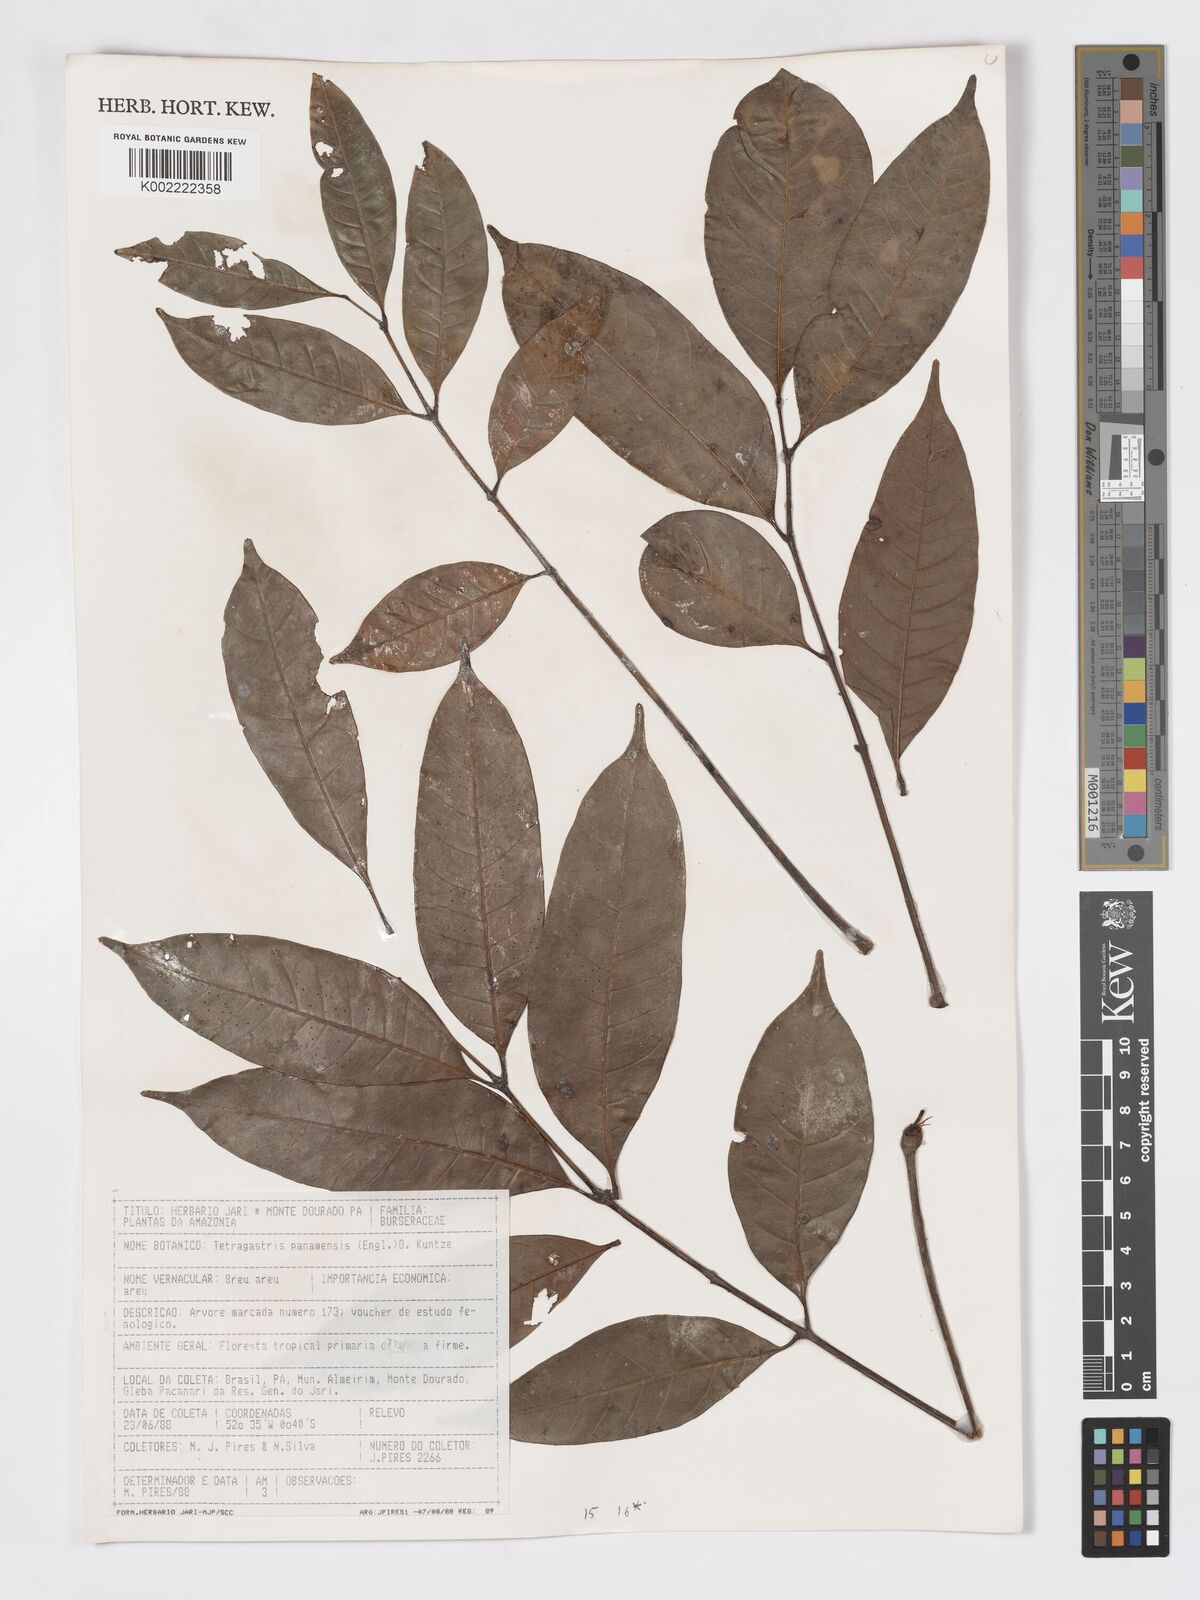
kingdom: Plantae
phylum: Tracheophyta
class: Magnoliopsida
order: Sapindales
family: Burseraceae
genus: Tetragastris
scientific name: Tetragastris panamensis
